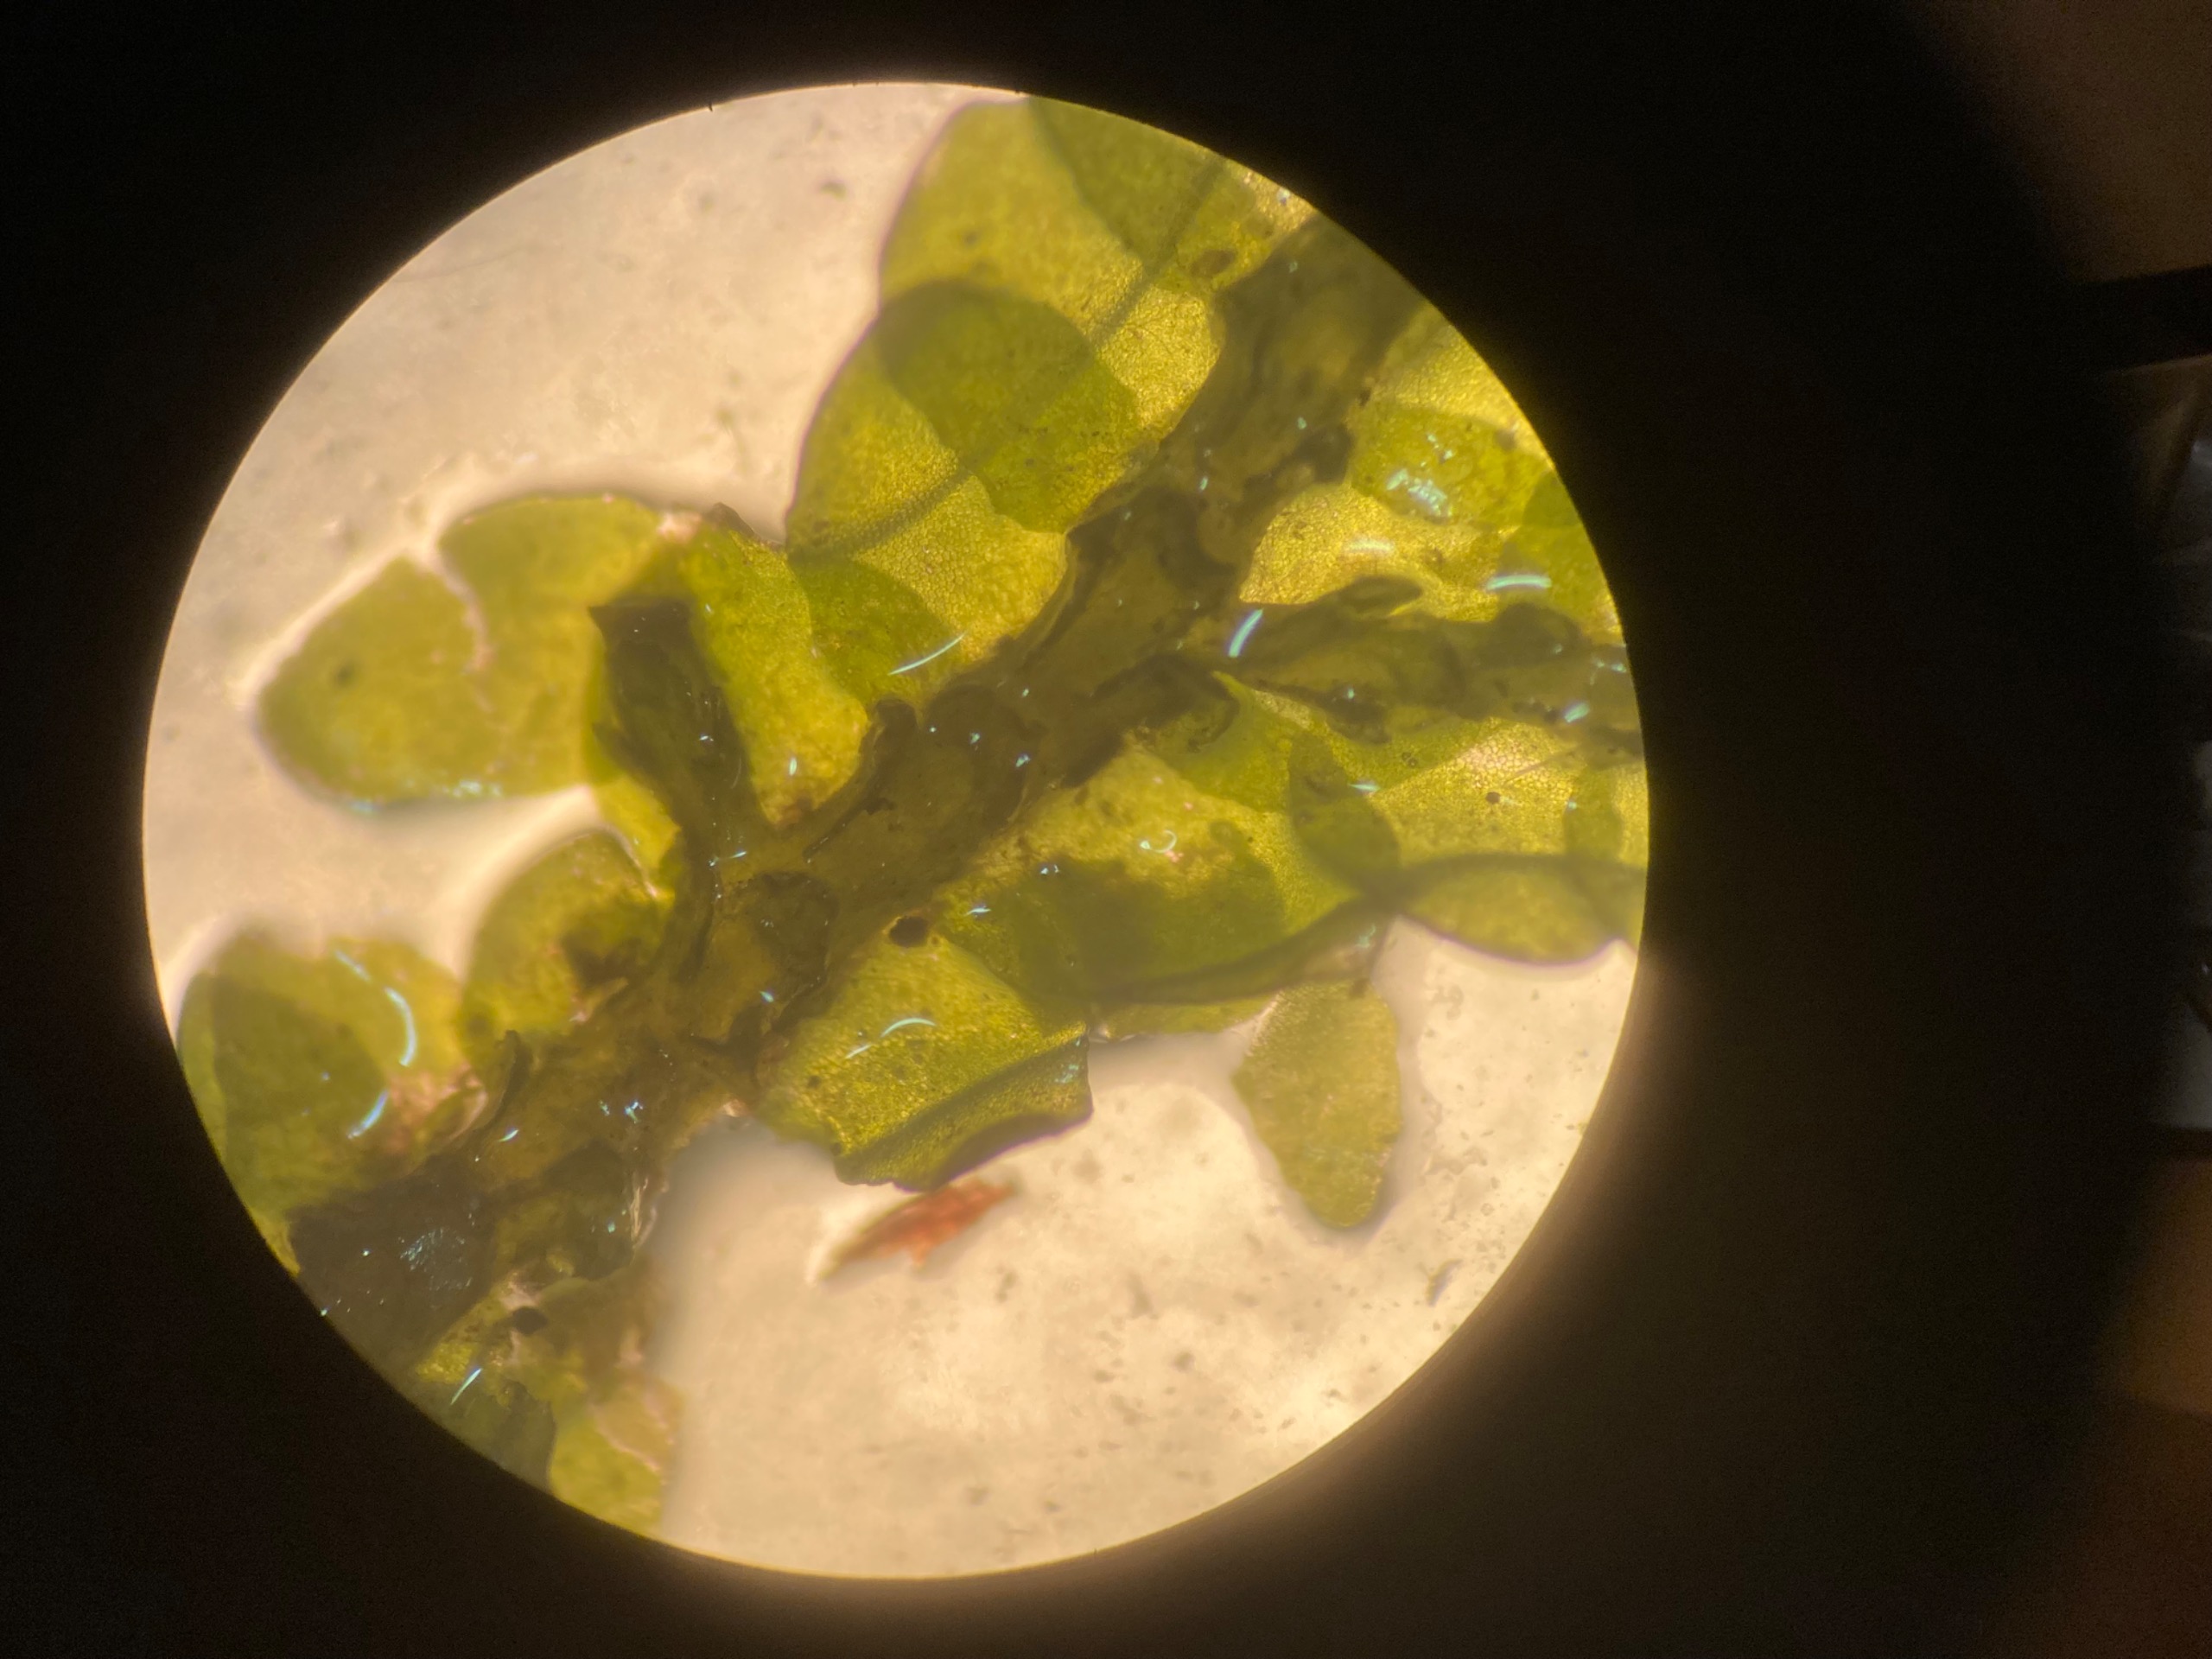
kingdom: Plantae
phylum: Marchantiophyta
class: Jungermanniopsida
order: Porellales
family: Porellaceae
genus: Porella
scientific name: Porella cordaeana
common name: Bæk-skælryg
